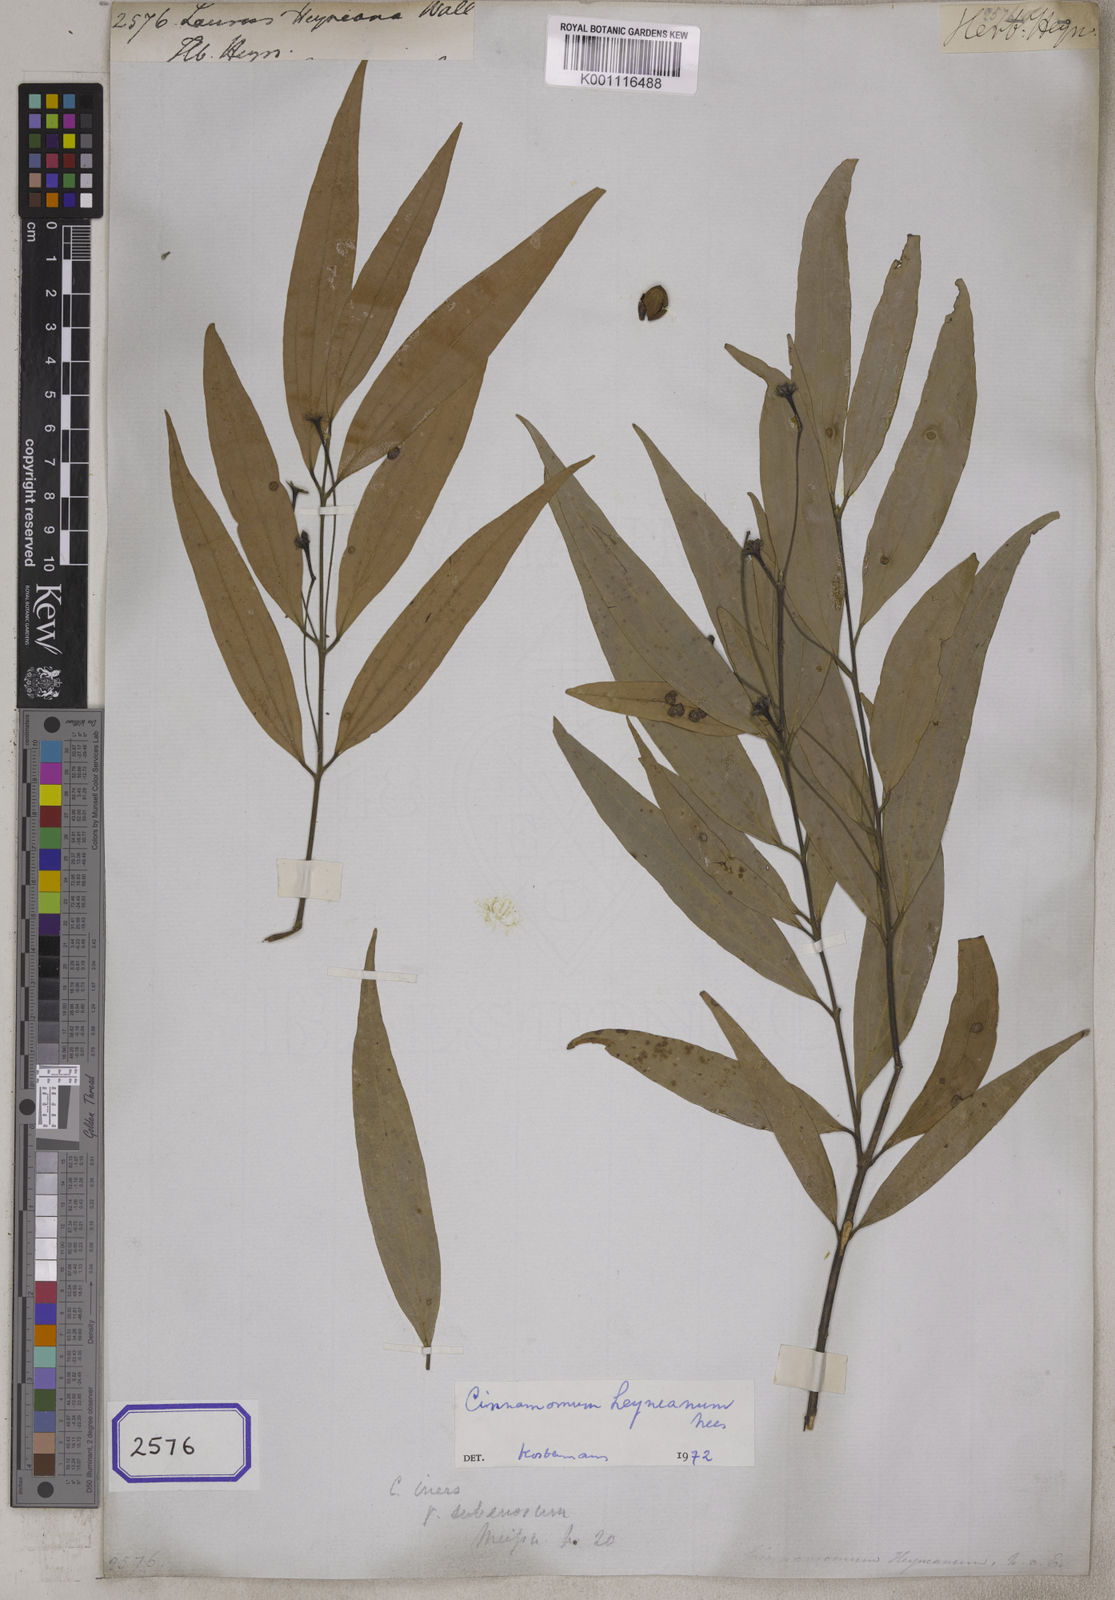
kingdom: Plantae
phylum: Tracheophyta
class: Magnoliopsida
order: Laurales
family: Lauraceae
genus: Cinnamomum
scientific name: Cinnamomum heyneanum
